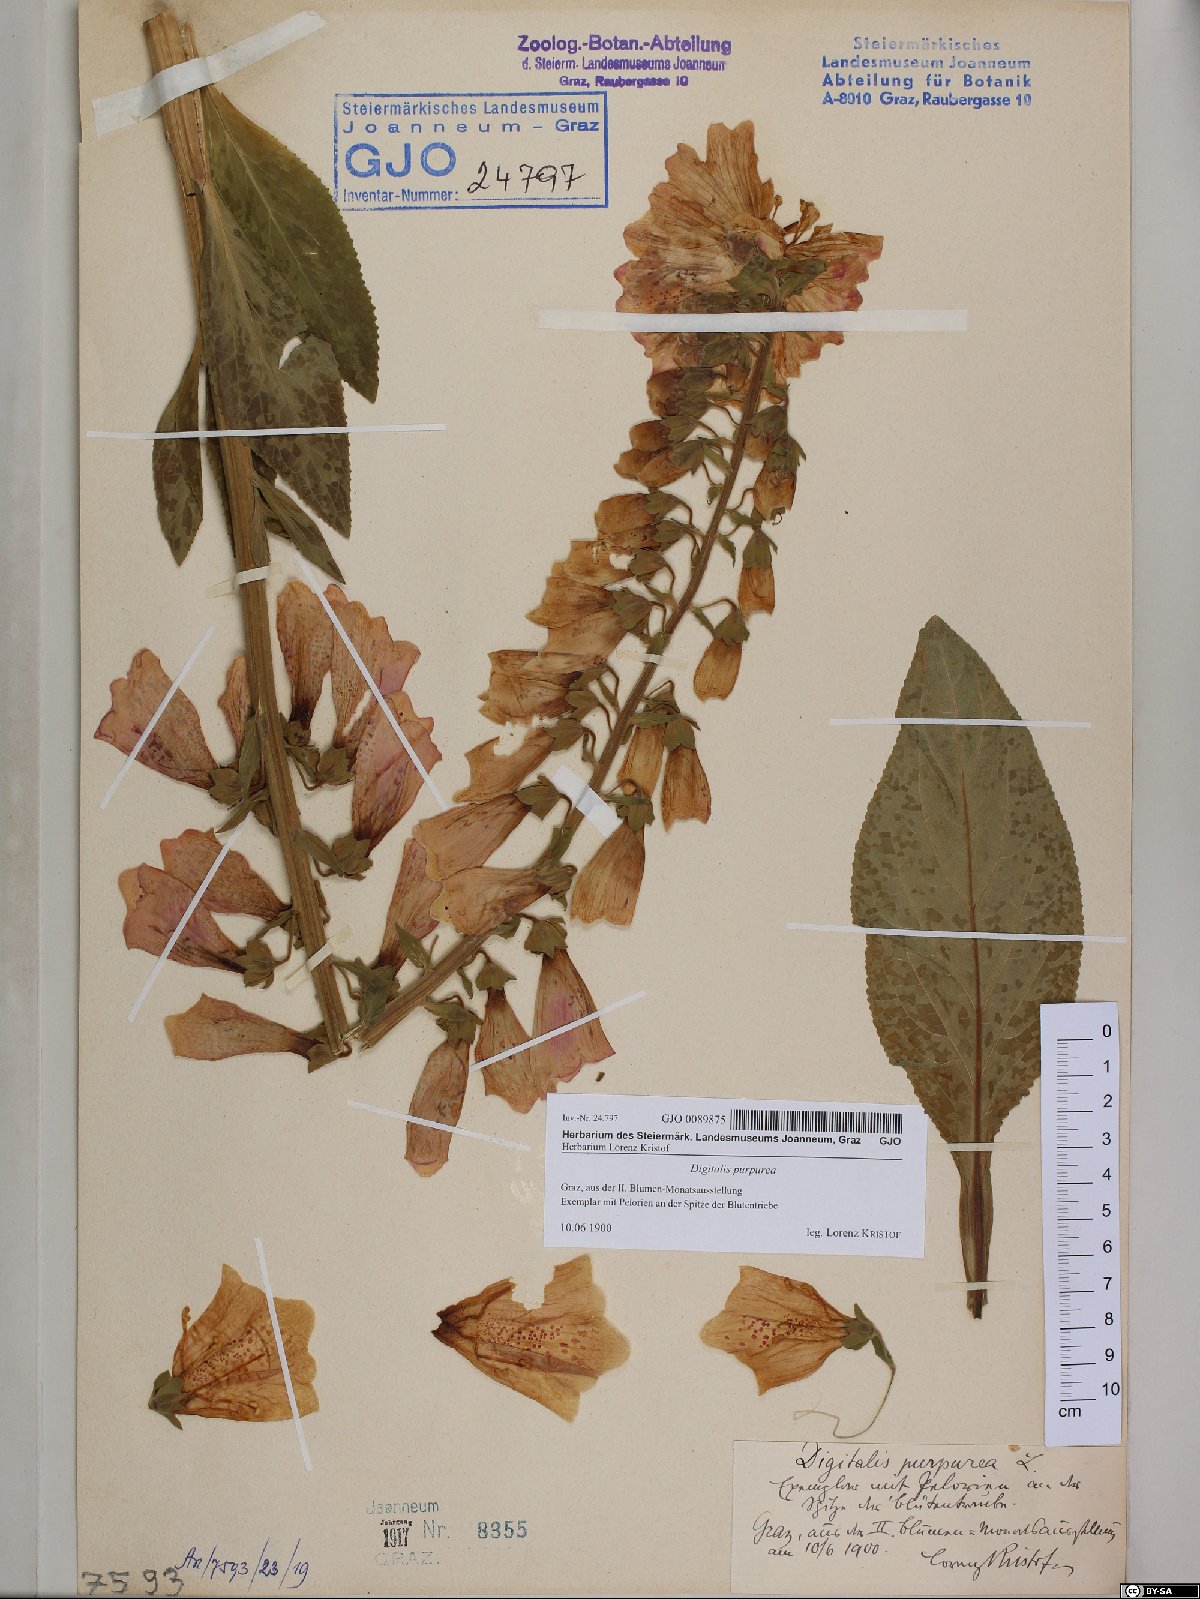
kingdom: Plantae
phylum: Tracheophyta
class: Magnoliopsida
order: Lamiales
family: Plantaginaceae
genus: Digitalis
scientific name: Digitalis purpurea
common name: Foxglove
